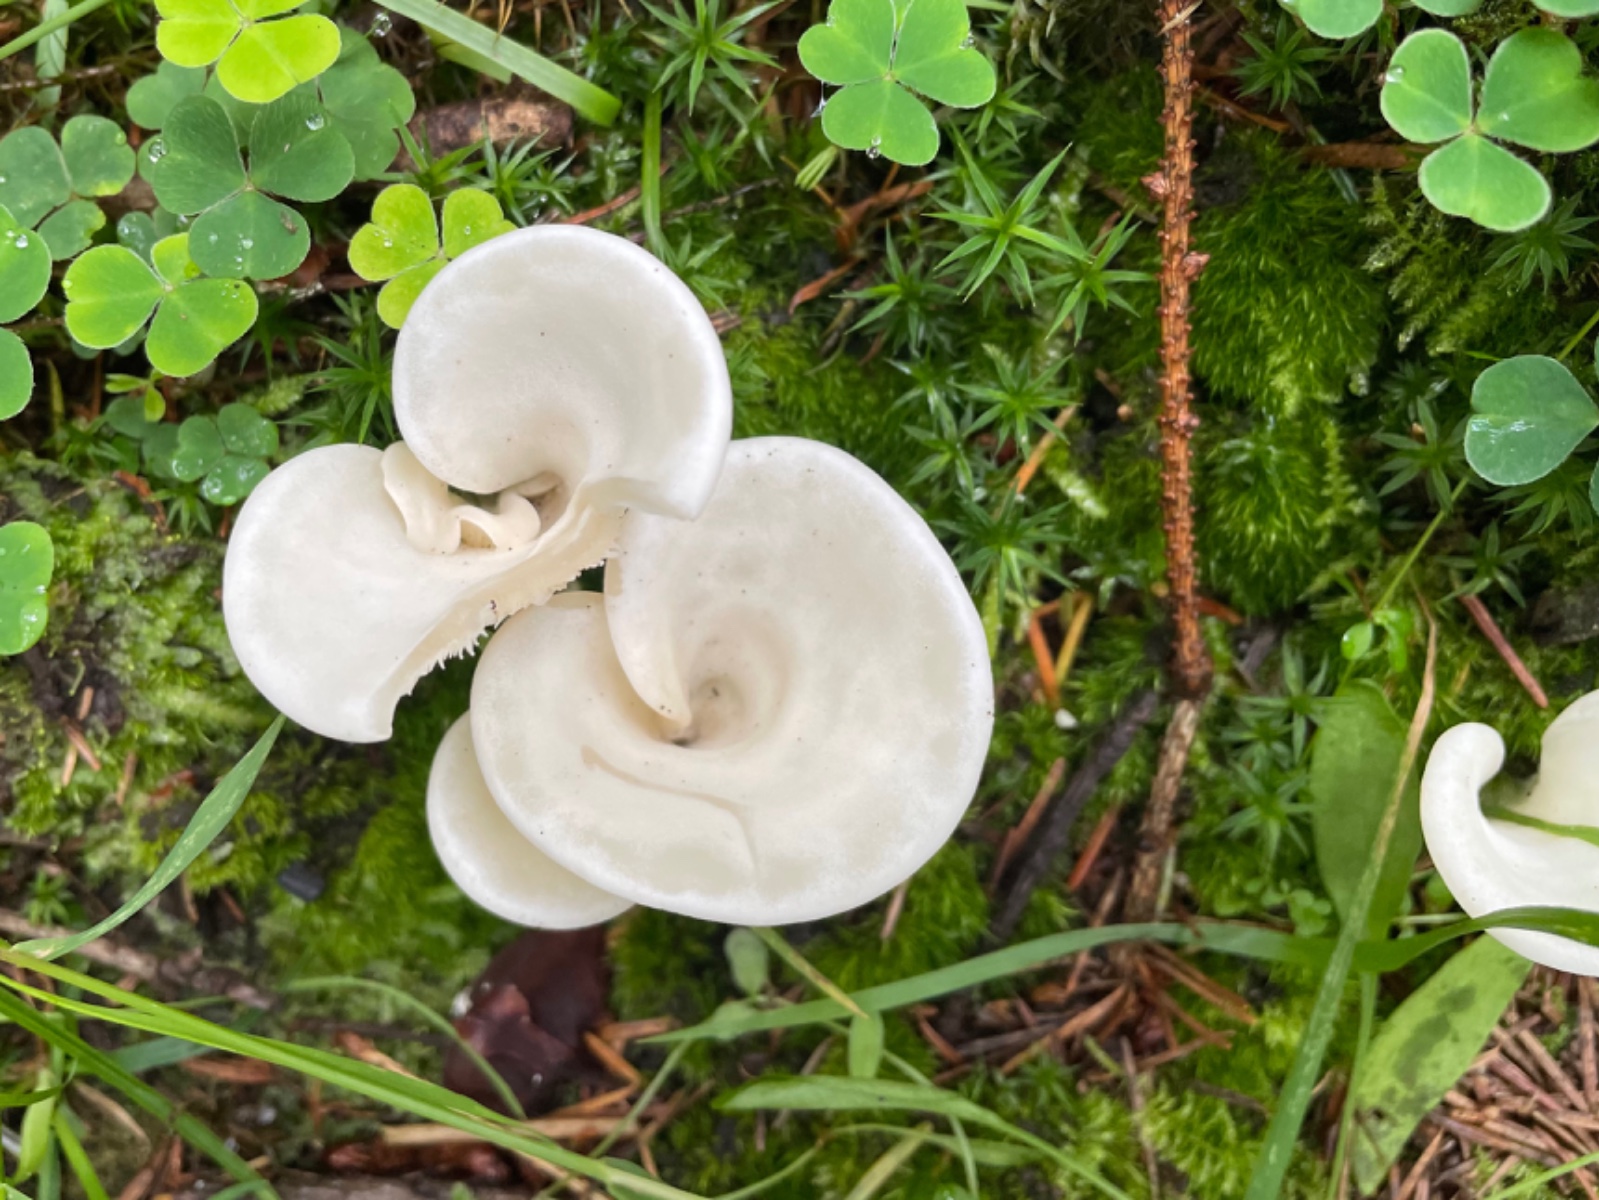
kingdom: Fungi
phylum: Basidiomycota
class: Agaricomycetes
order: Agaricales
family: Marasmiaceae
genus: Pleurocybella
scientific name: Pleurocybella porrigens
